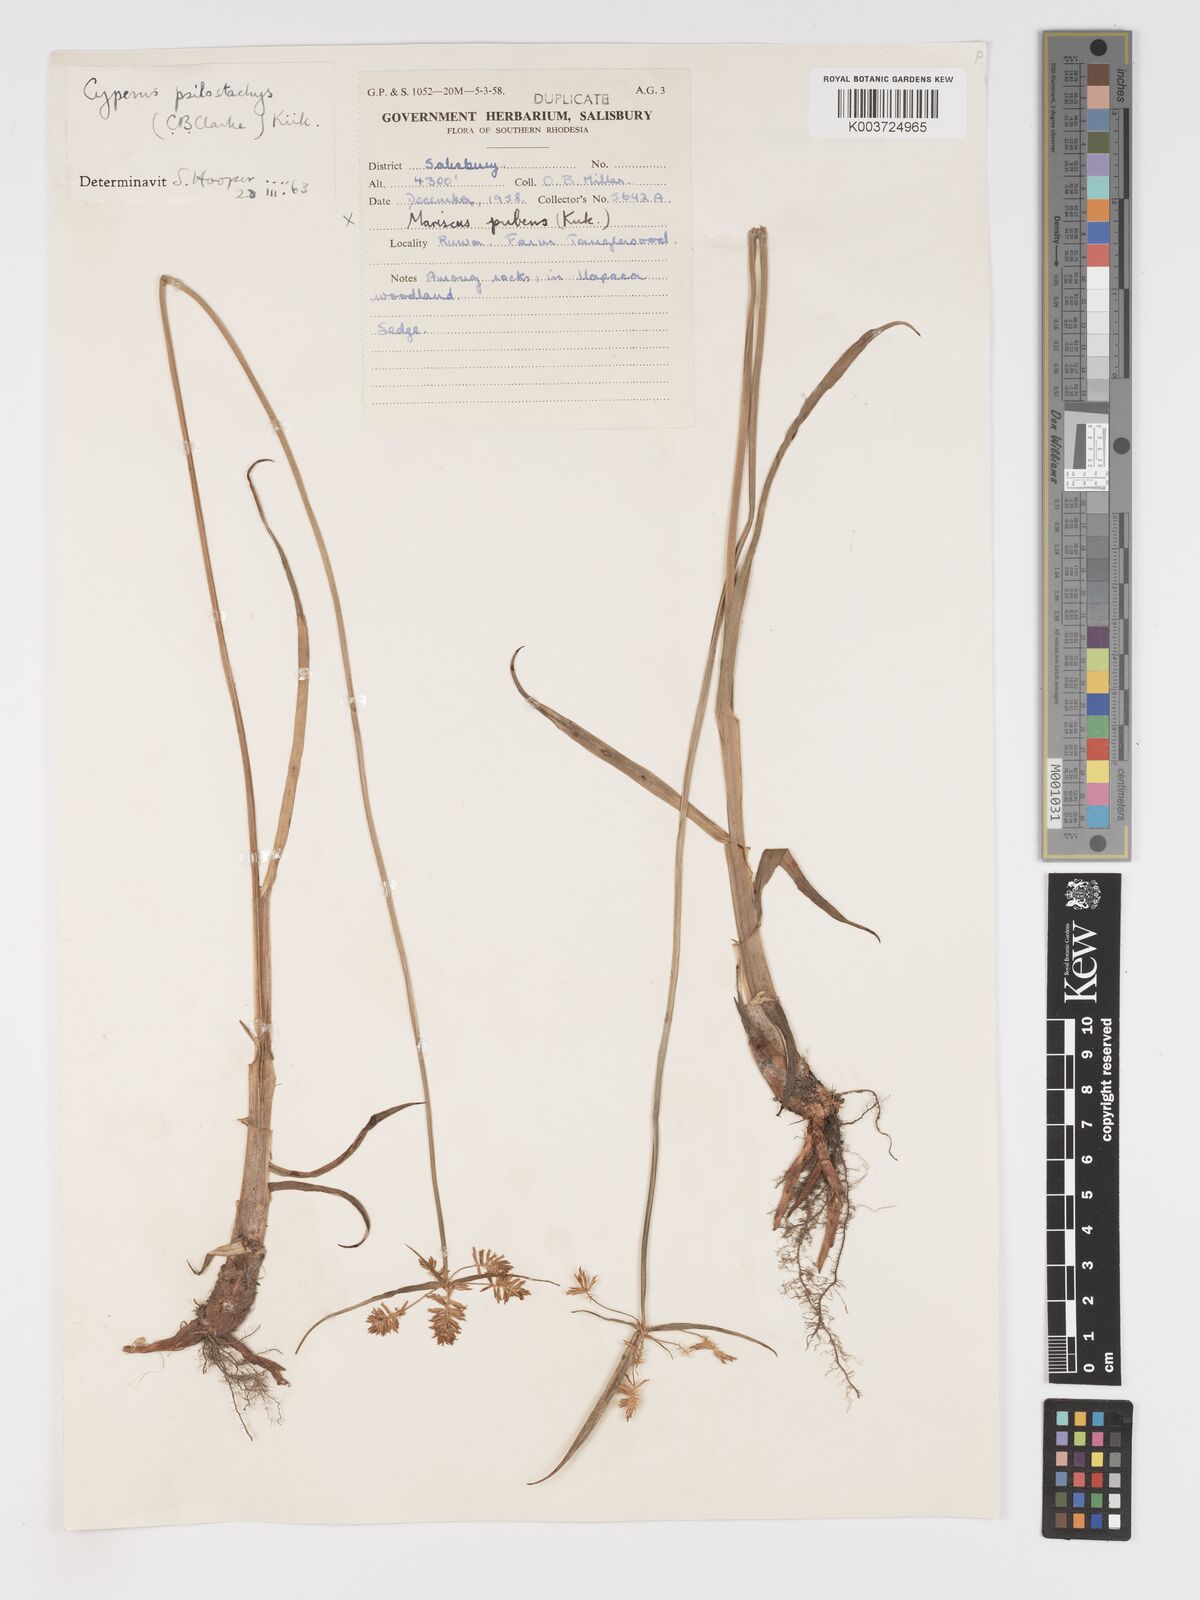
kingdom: Plantae
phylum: Tracheophyta
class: Liliopsida
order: Poales
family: Cyperaceae
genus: Cyperus
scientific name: Cyperus trigonellus
